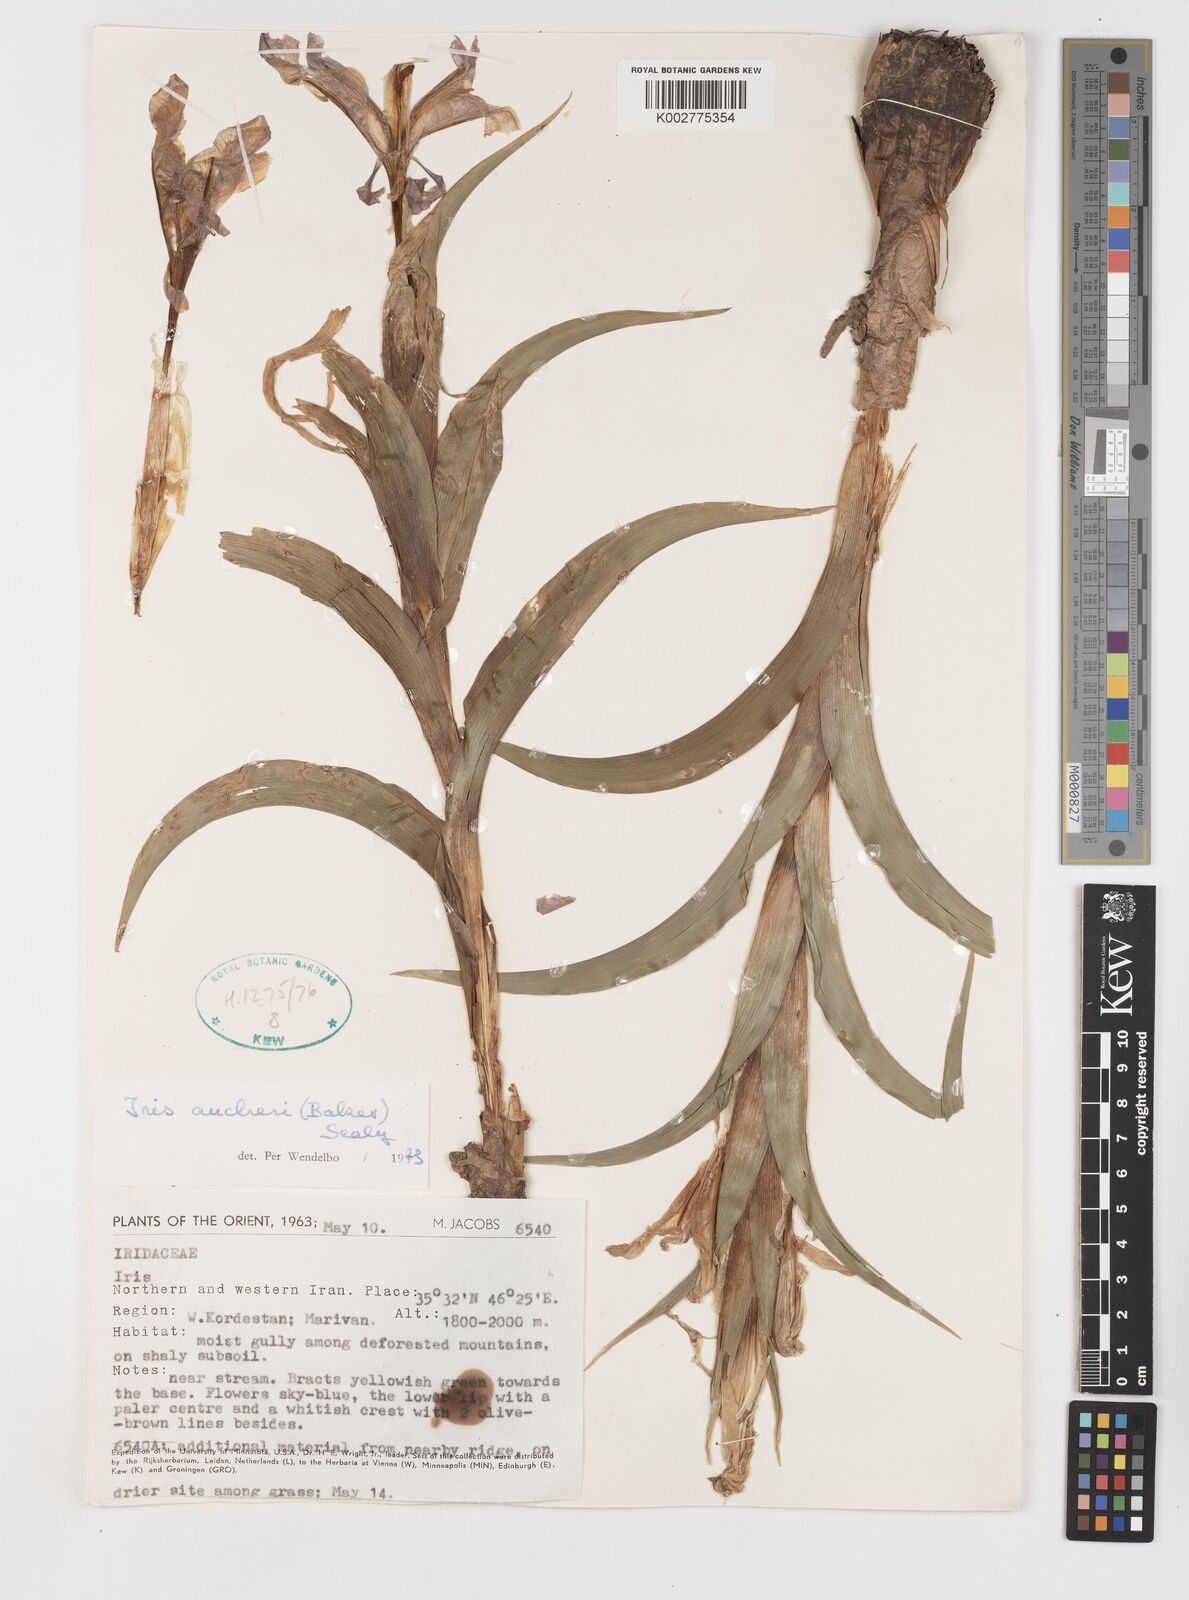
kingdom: Plantae
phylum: Tracheophyta
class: Liliopsida
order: Asparagales
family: Iridaceae
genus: Iris
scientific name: Iris aucheri
